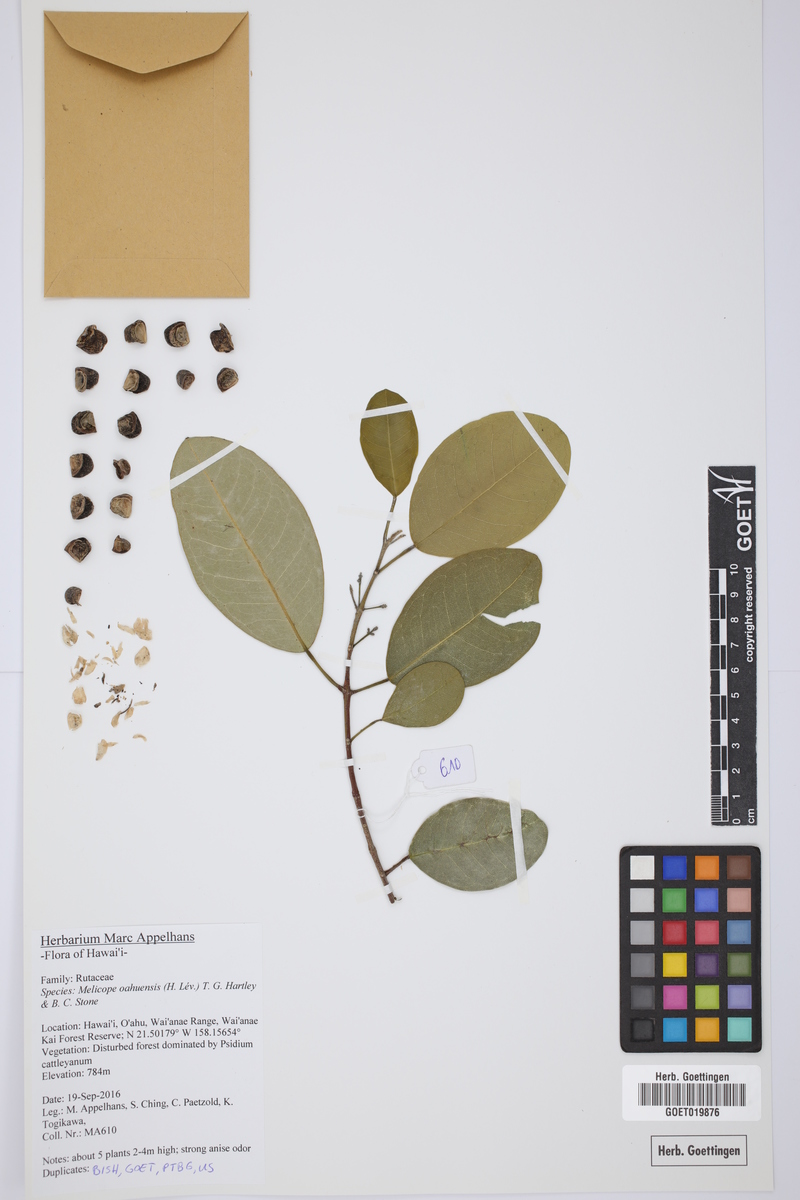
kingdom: Plantae
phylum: Tracheophyta
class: Magnoliopsida
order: Sapindales
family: Rutaceae
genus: Melicope
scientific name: Melicope oahuensis
